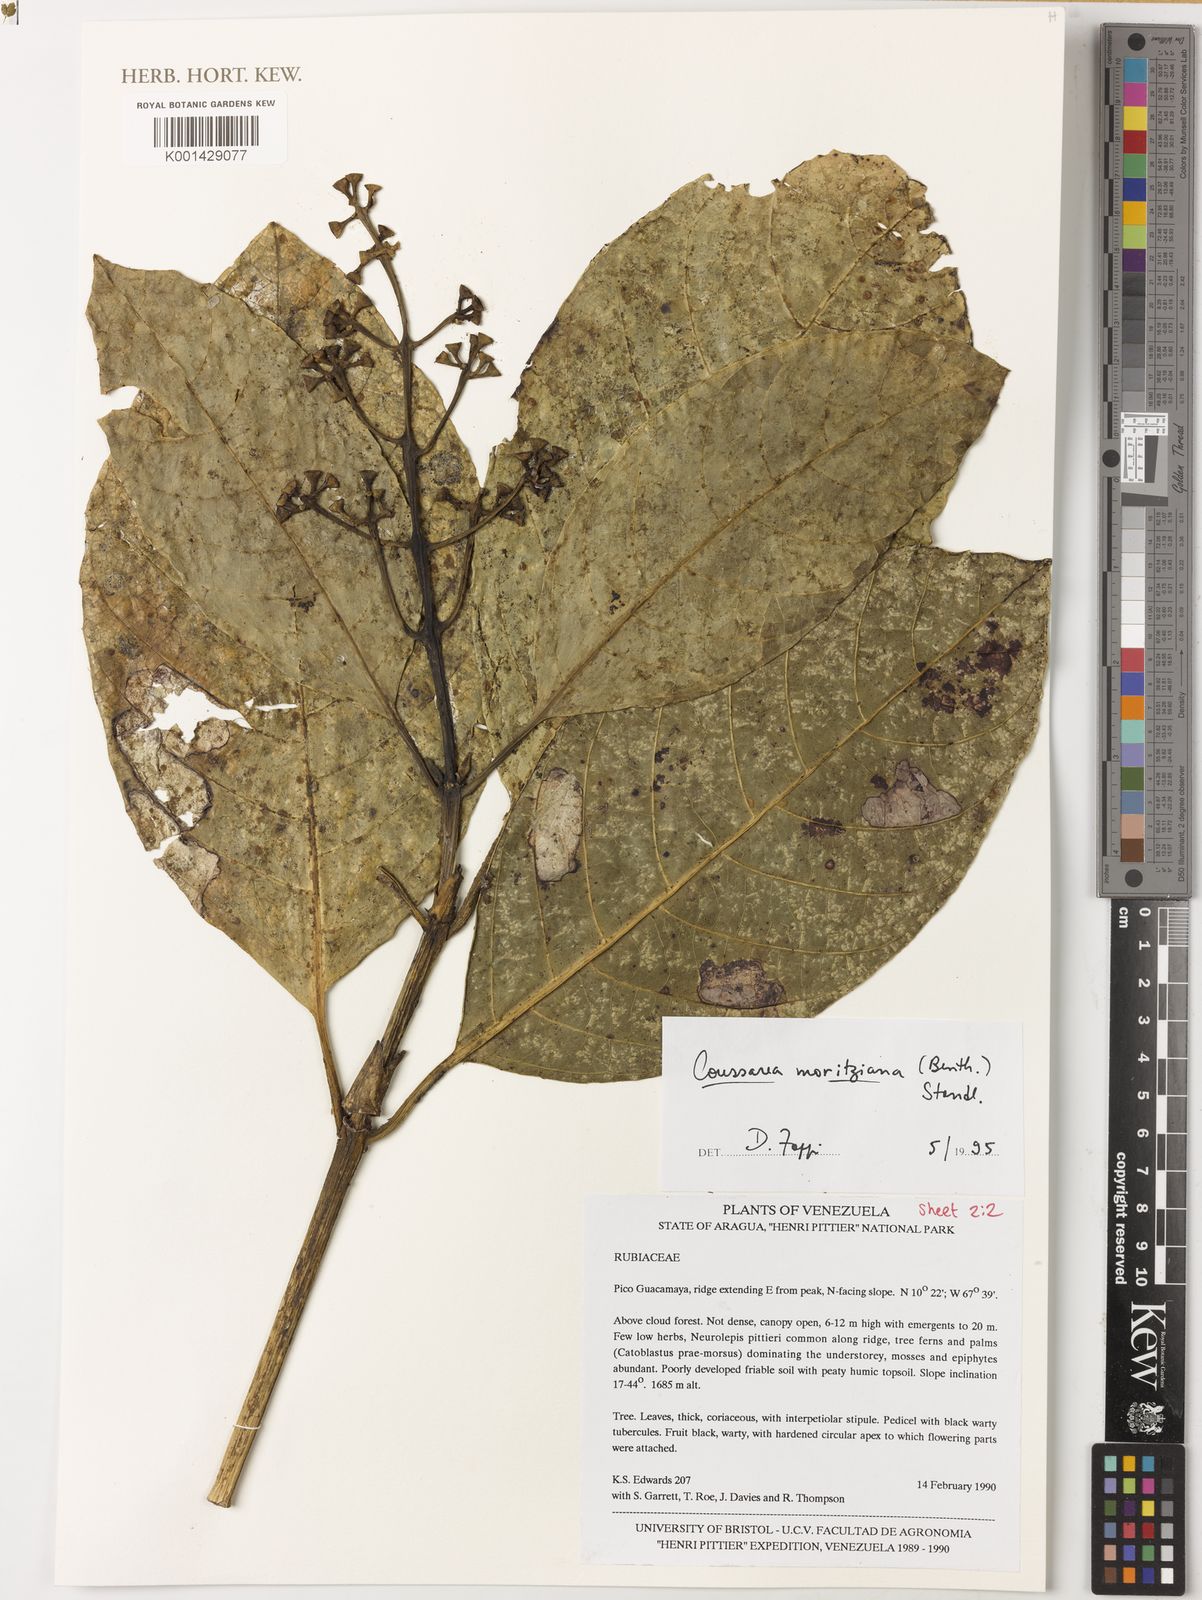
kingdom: Plantae
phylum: Tracheophyta
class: Magnoliopsida
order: Gentianales
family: Rubiaceae
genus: Coussarea
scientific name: Coussarea moritziana
